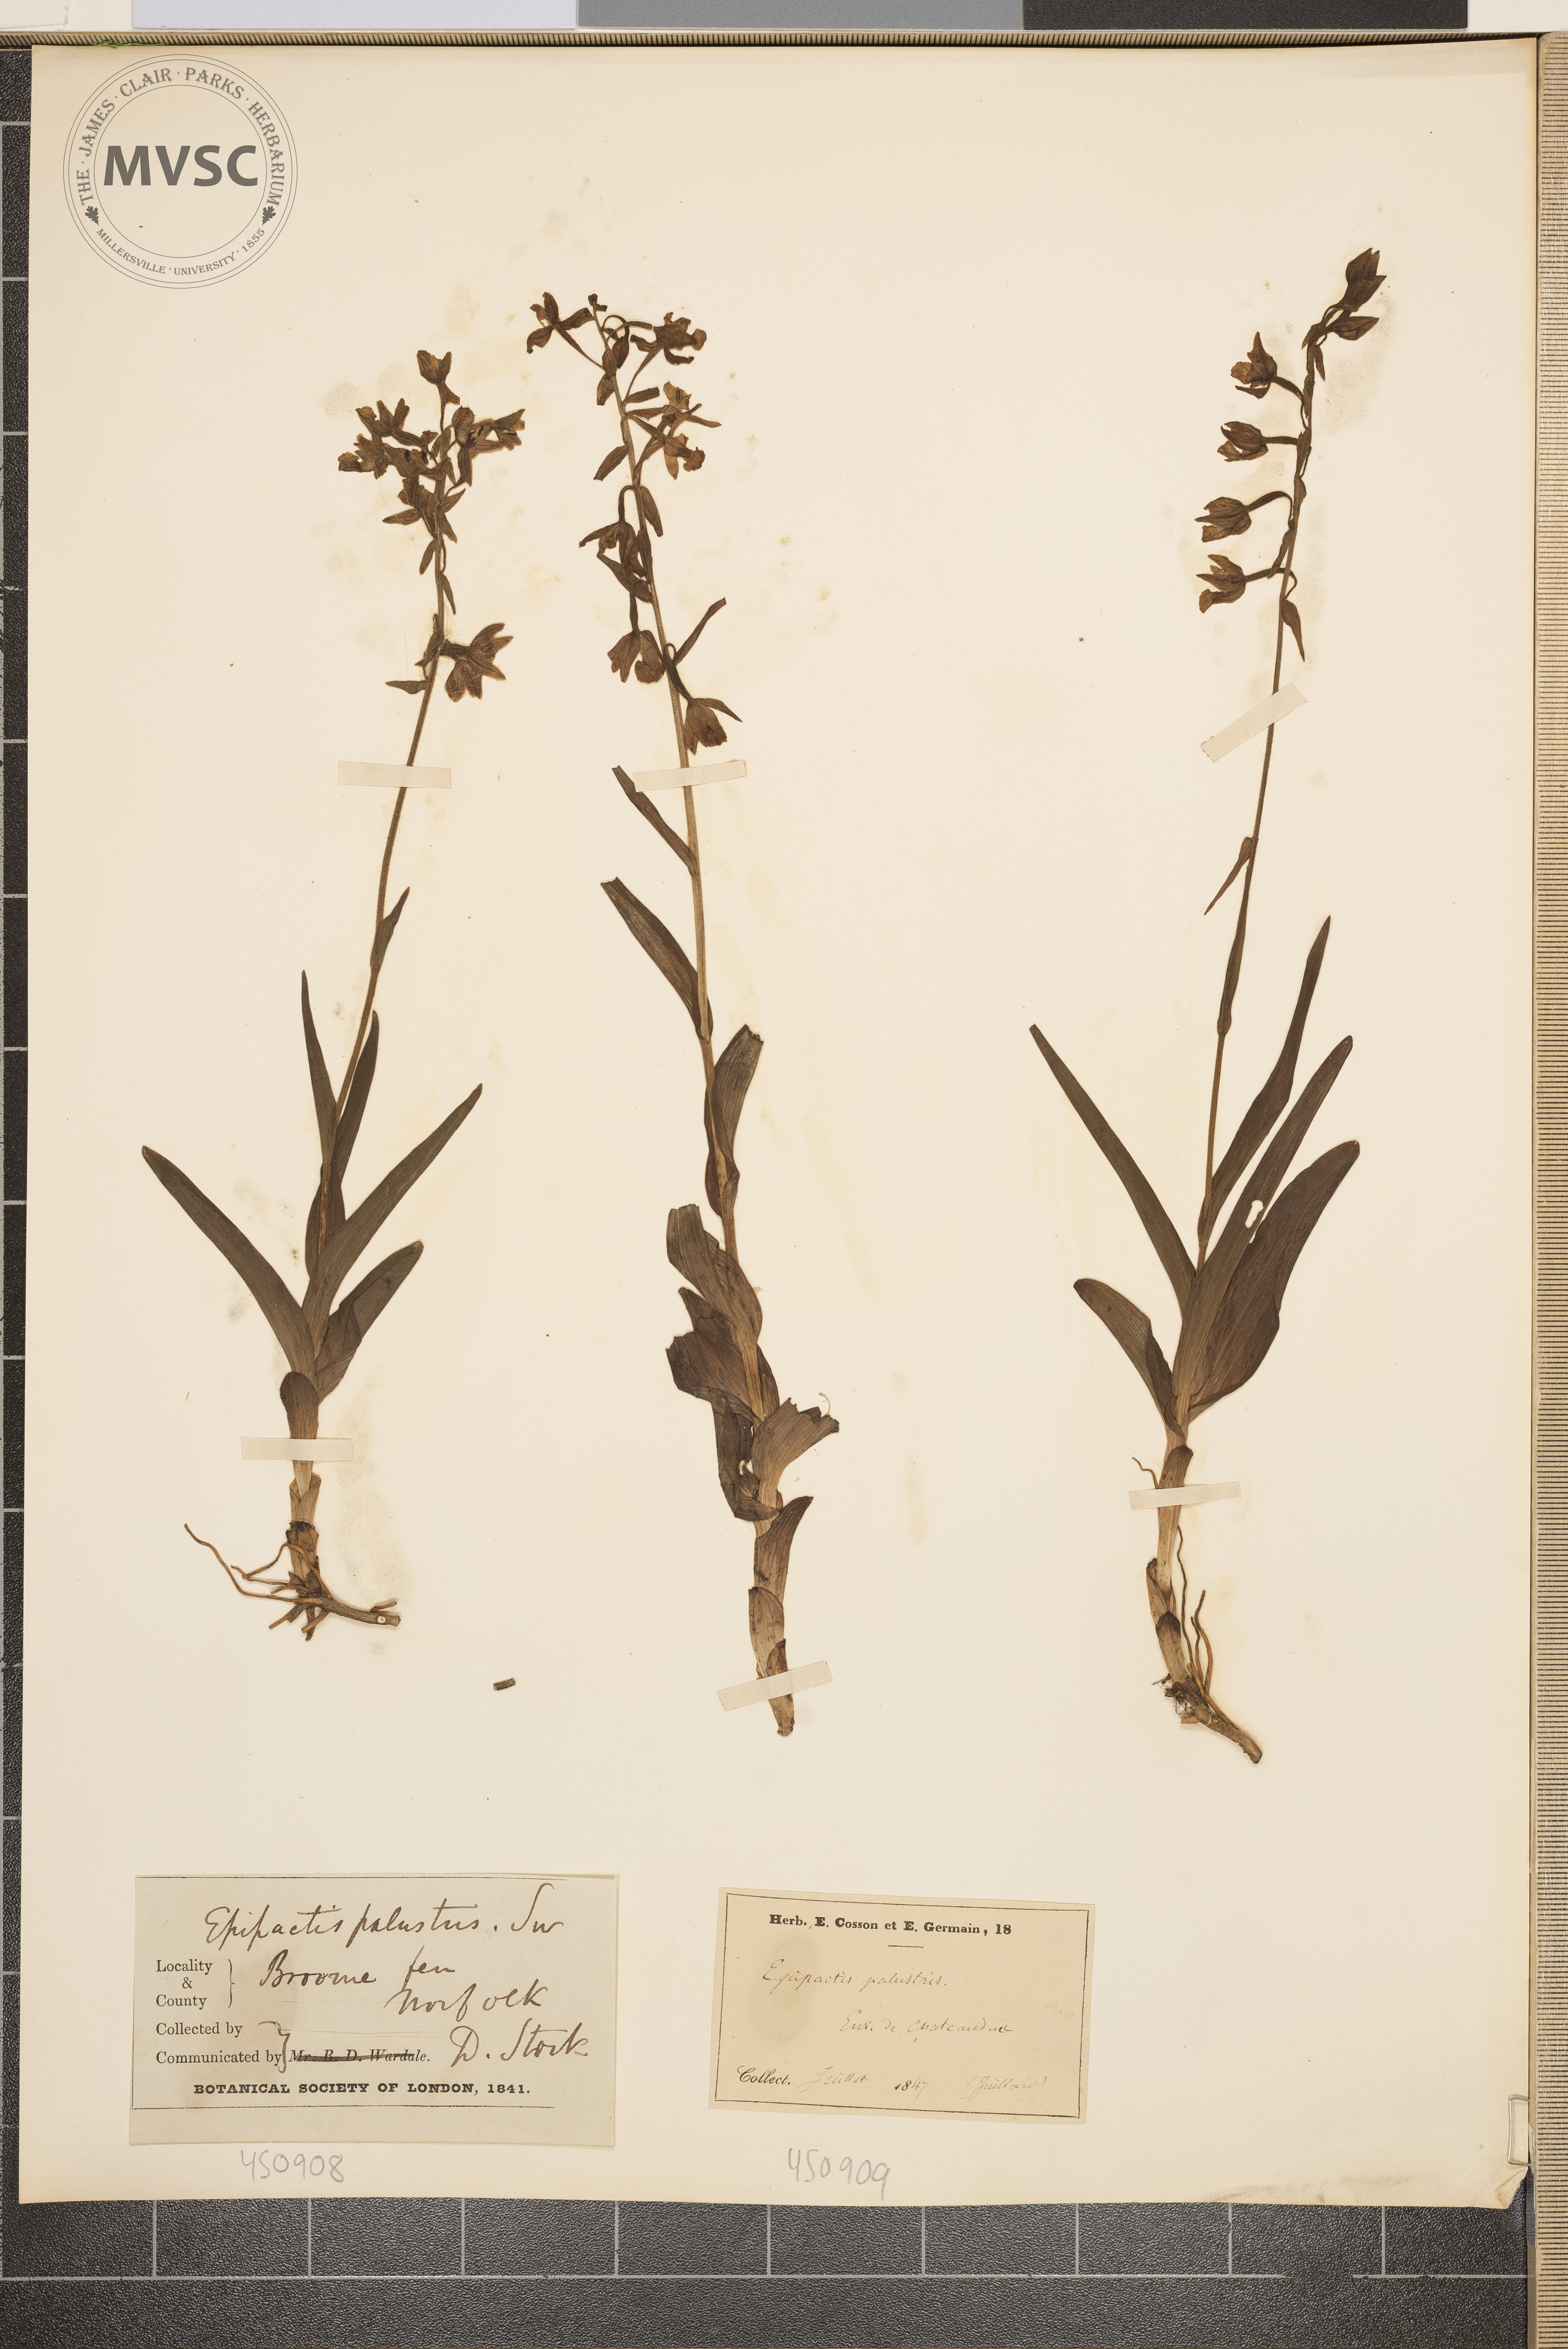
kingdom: Plantae
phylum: Tracheophyta
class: Liliopsida
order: Asparagales
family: Orchidaceae
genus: Epipactis
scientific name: Epipactis palustris
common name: Marsh helleborine
